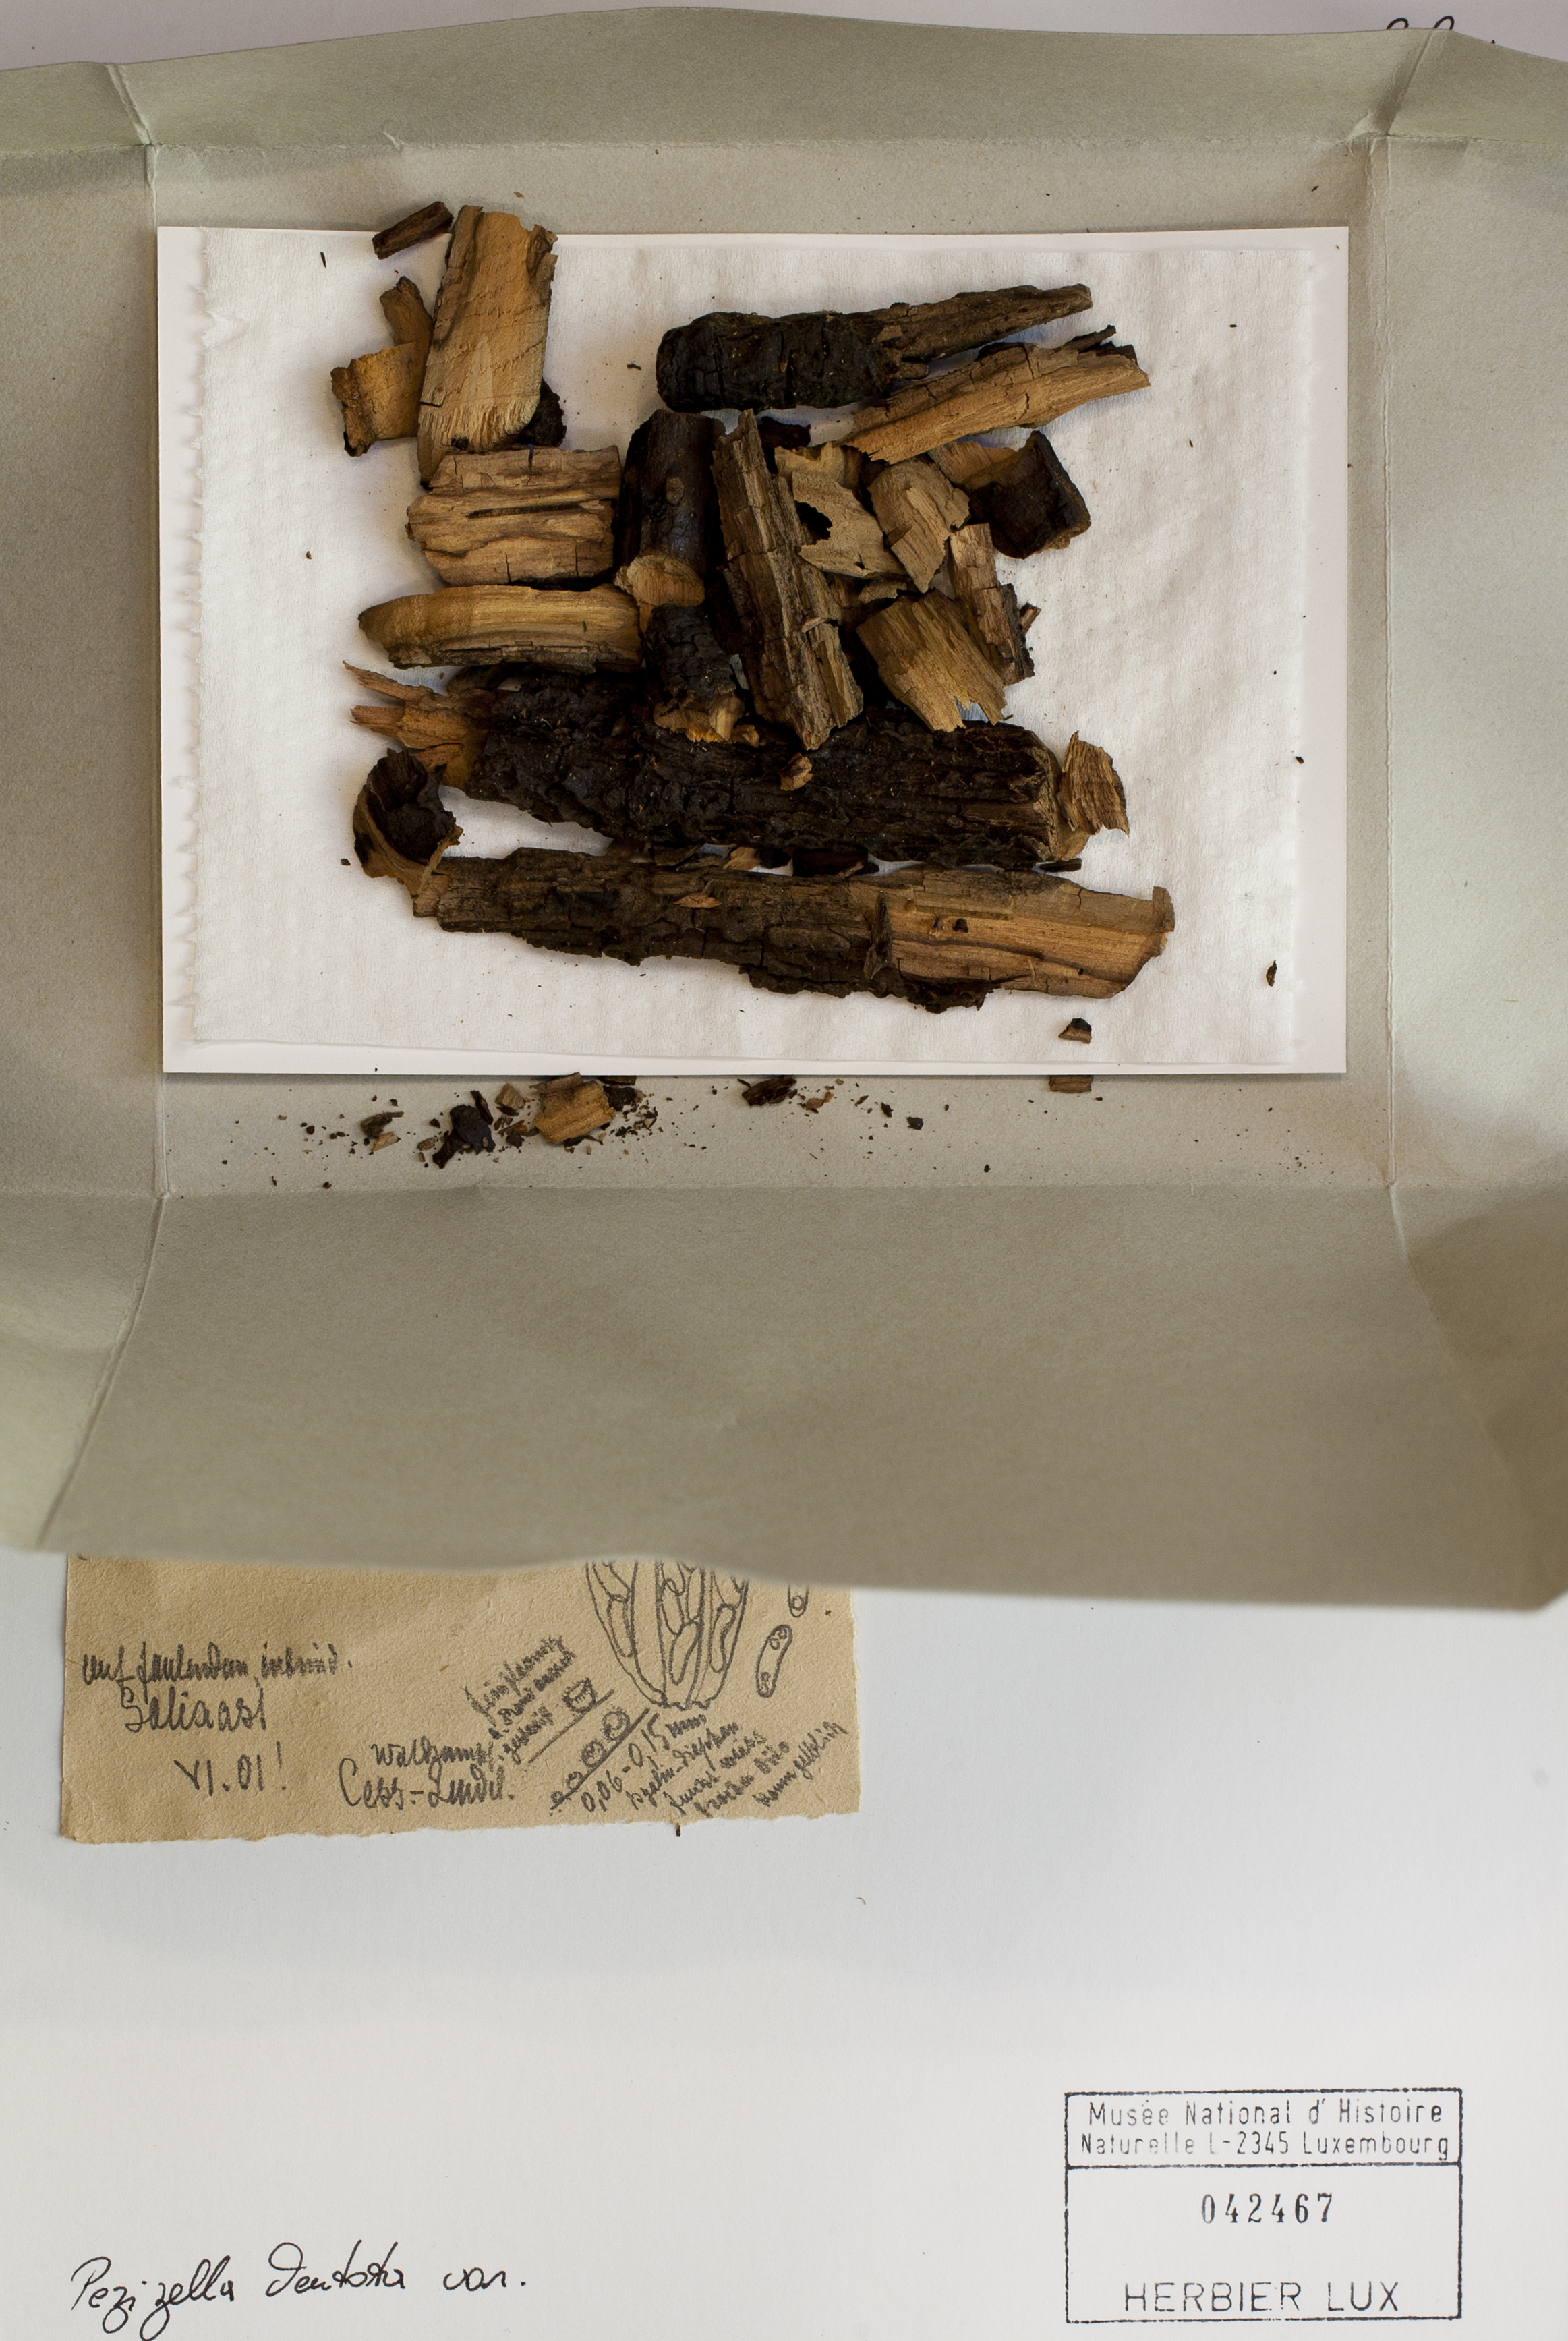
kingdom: Fungi
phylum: Ascomycota
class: Leotiomycetes
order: Helotiales
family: Hyaloscyphaceae
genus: Cistella
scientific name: Cistella dentata
